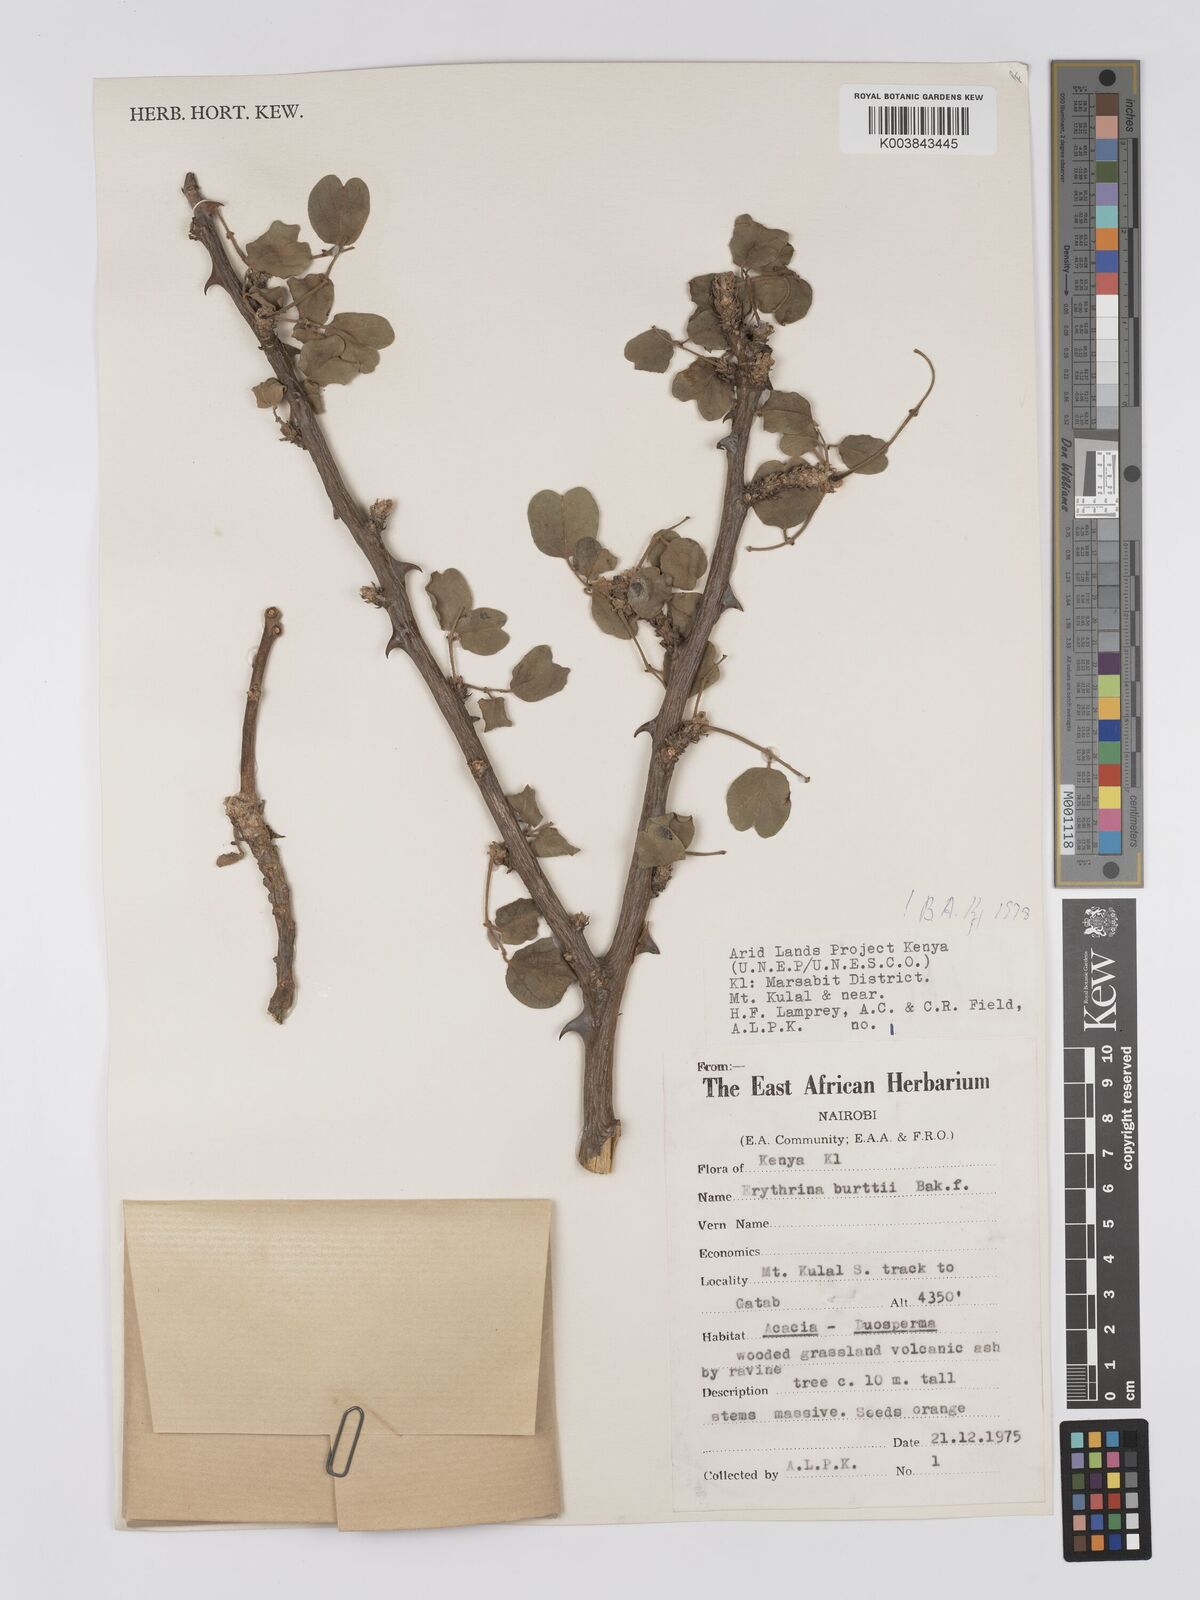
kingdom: Plantae
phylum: Tracheophyta
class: Magnoliopsida
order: Fabales
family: Fabaceae
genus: Erythrina
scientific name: Erythrina burttii
